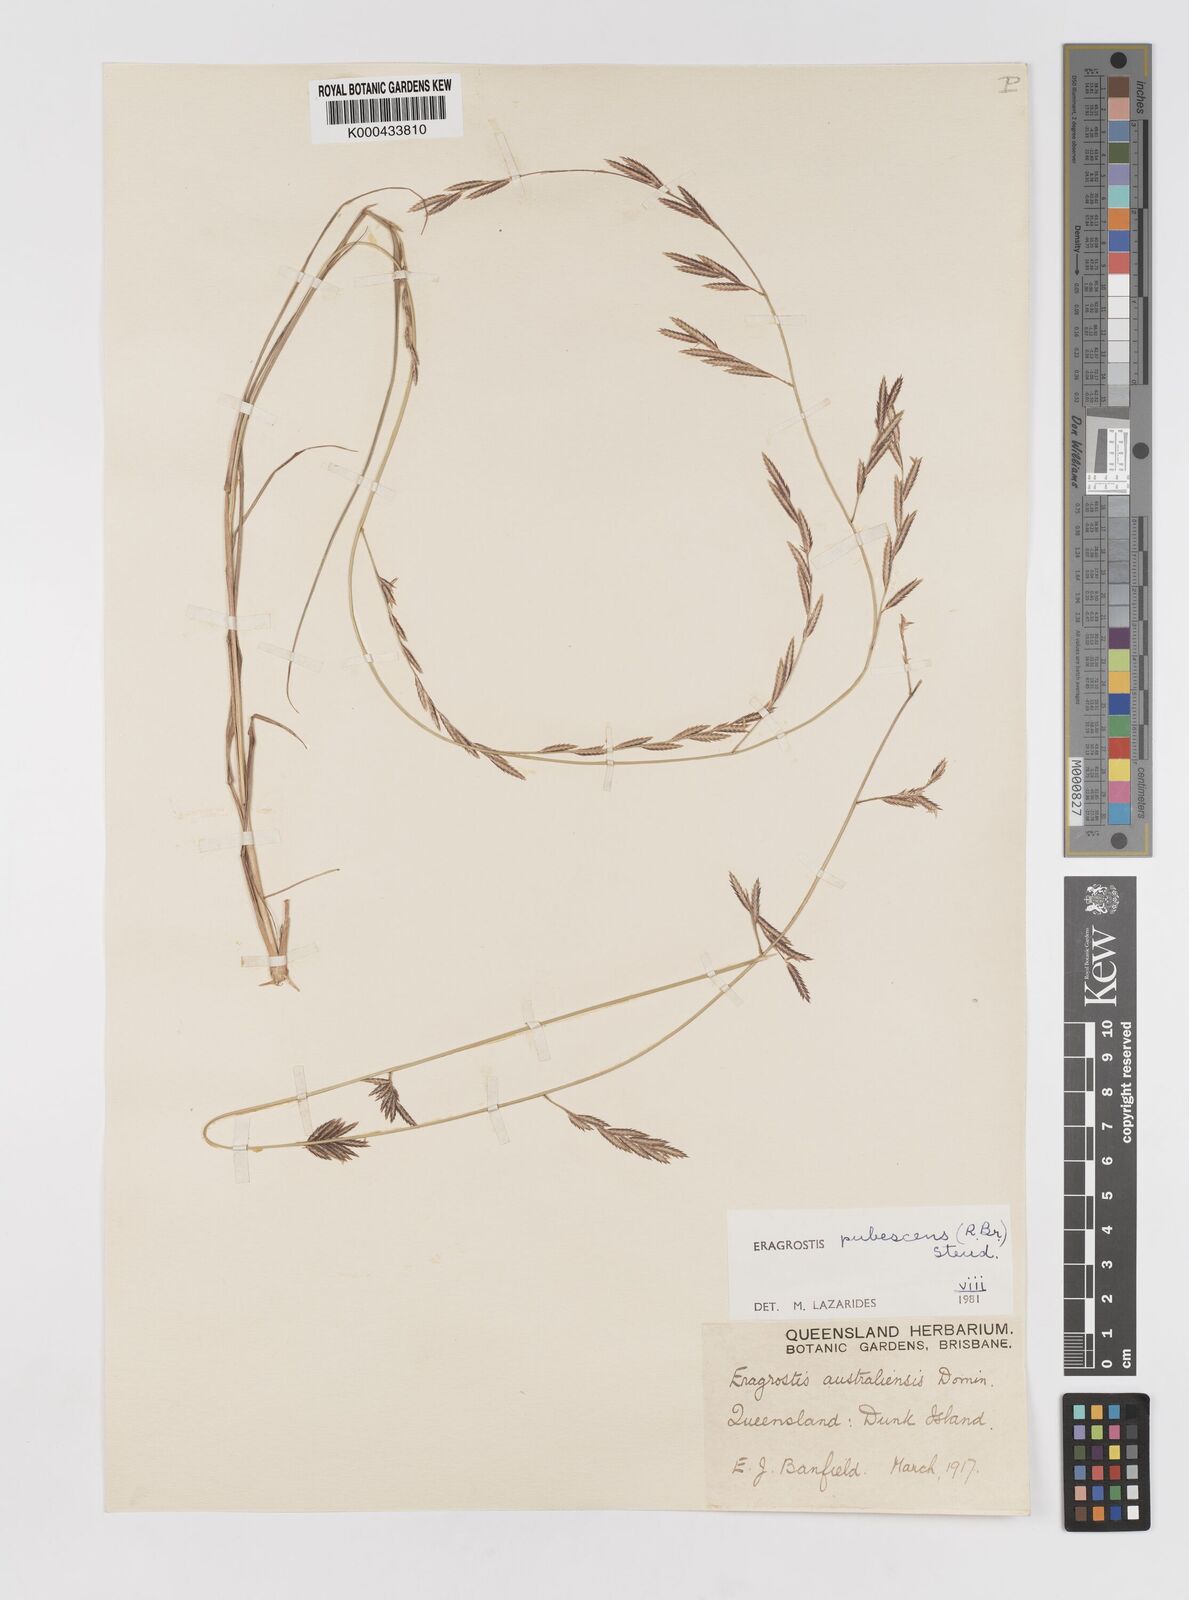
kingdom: Plantae
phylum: Tracheophyta
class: Liliopsida
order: Poales
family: Poaceae
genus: Eragrostis
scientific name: Eragrostis pubescens
